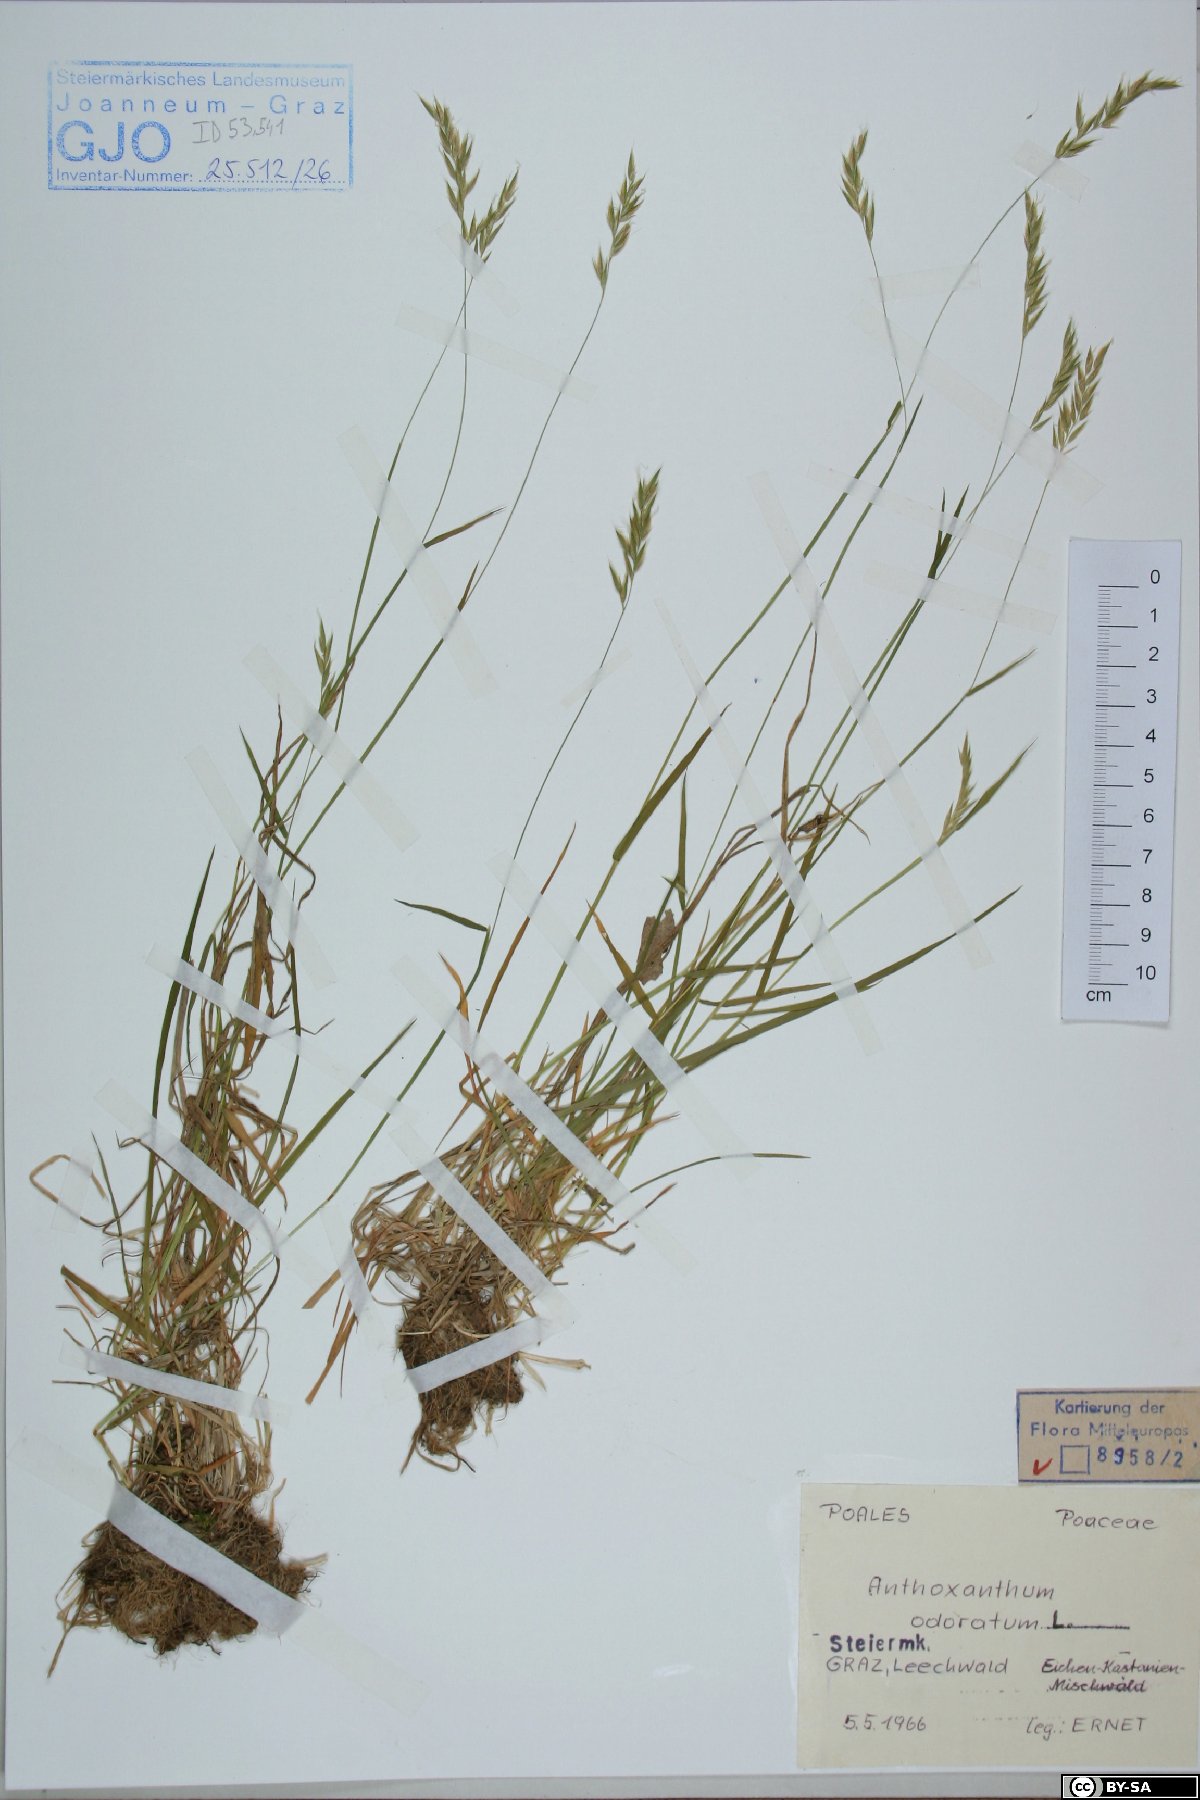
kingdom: Plantae
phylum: Tracheophyta
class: Liliopsida
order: Poales
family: Poaceae
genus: Anthoxanthum
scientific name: Anthoxanthum odoratum
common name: Sweet vernalgrass
